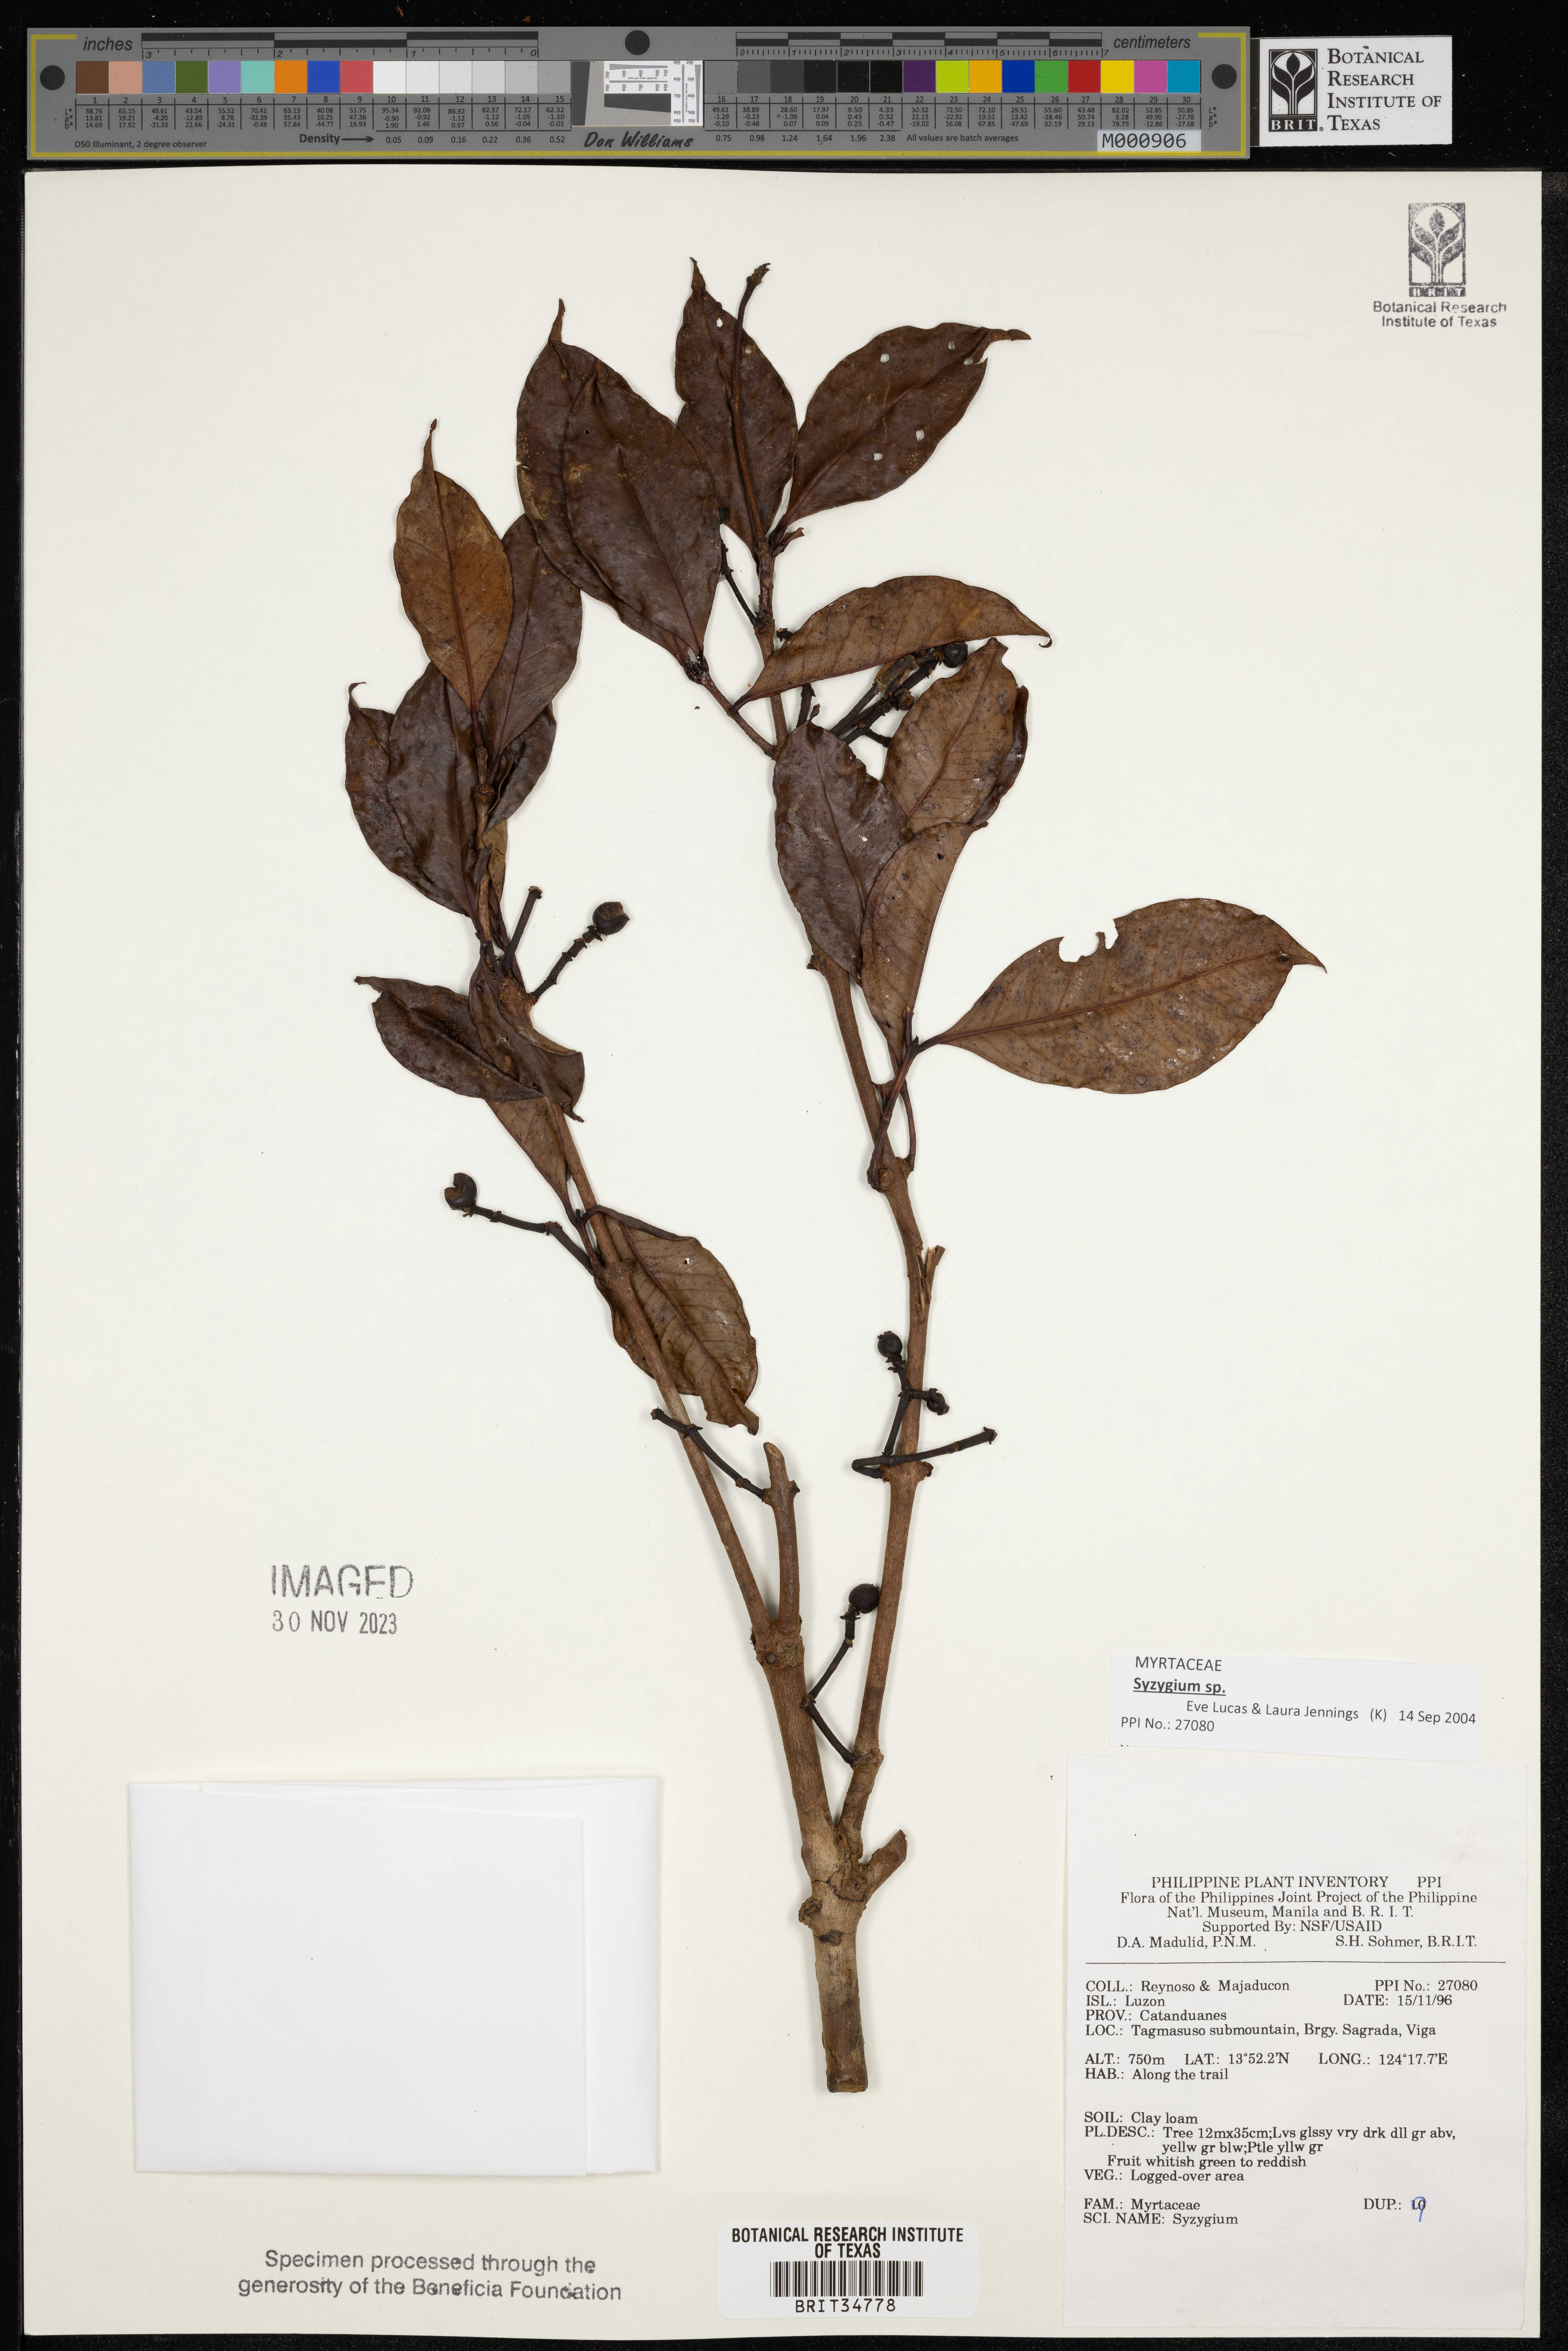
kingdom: Plantae
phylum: Tracheophyta
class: Magnoliopsida
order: Myrtales
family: Myrtaceae
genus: Syzygium
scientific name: Syzygium
